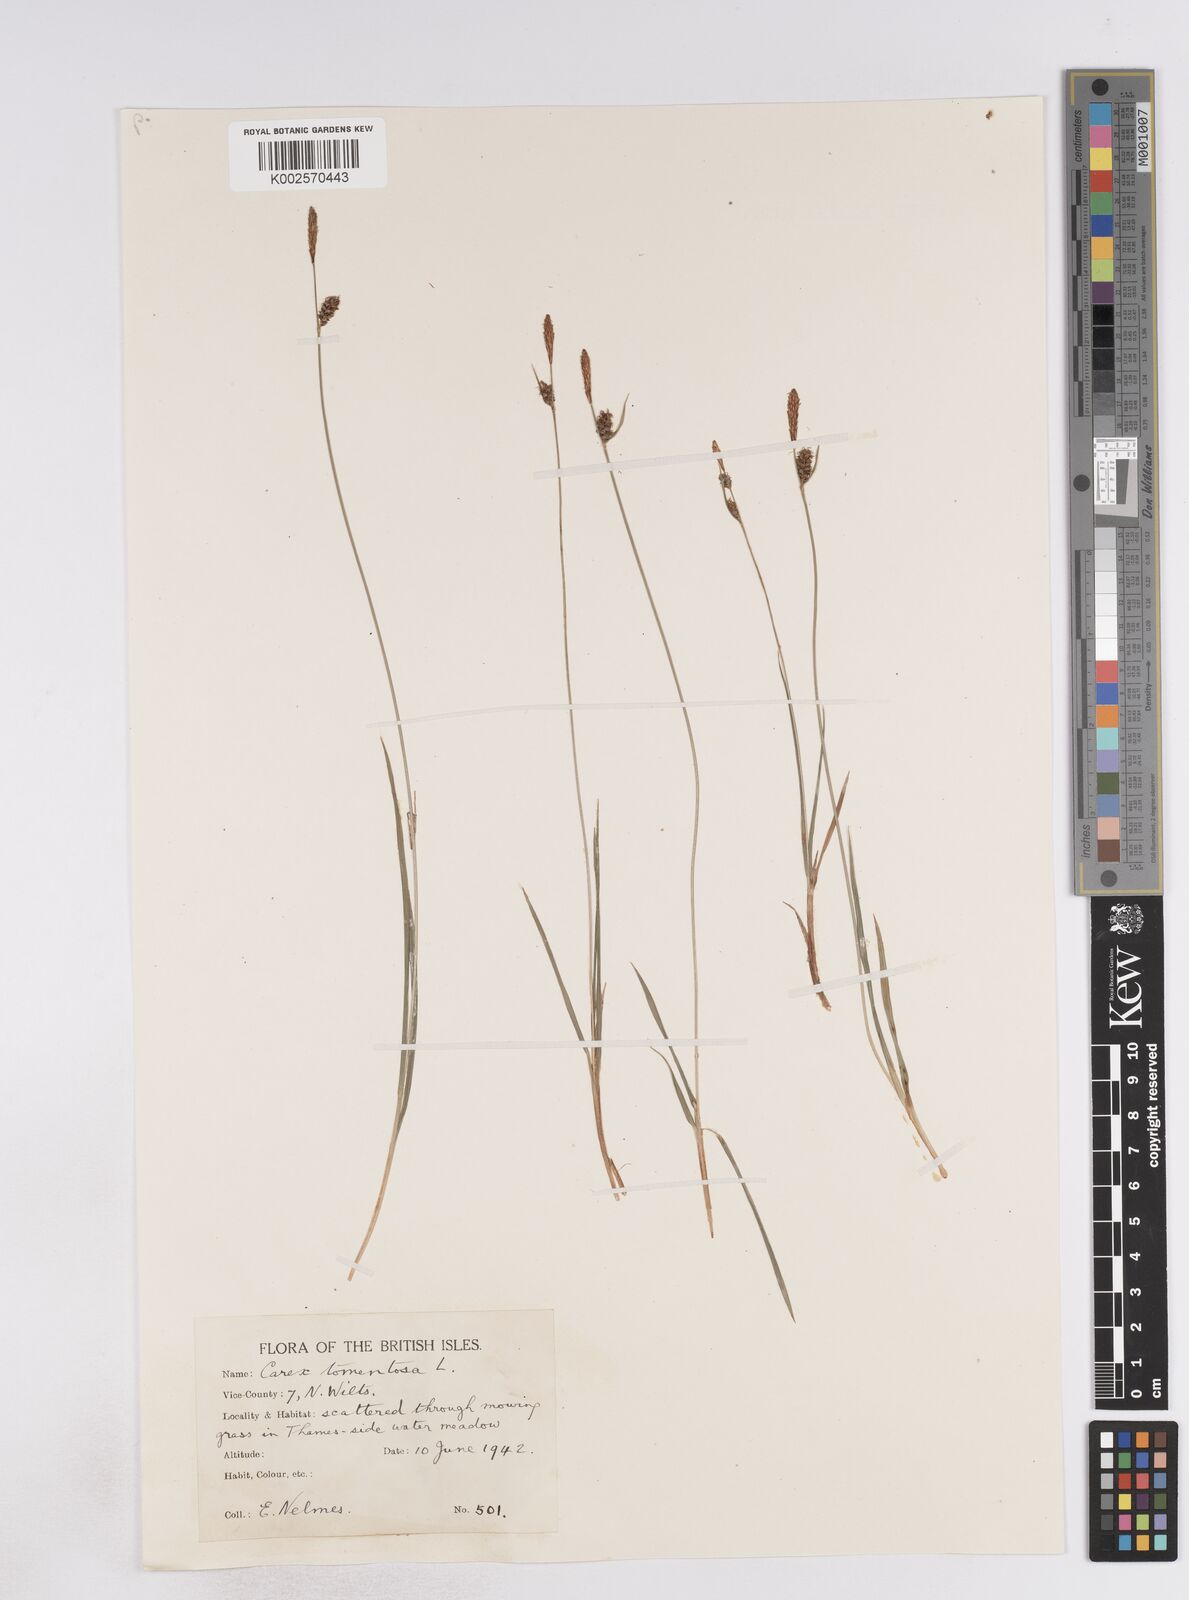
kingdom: Plantae
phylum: Tracheophyta
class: Liliopsida
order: Poales
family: Cyperaceae
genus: Carex
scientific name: Carex montana
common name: Soft-leaved sedge
